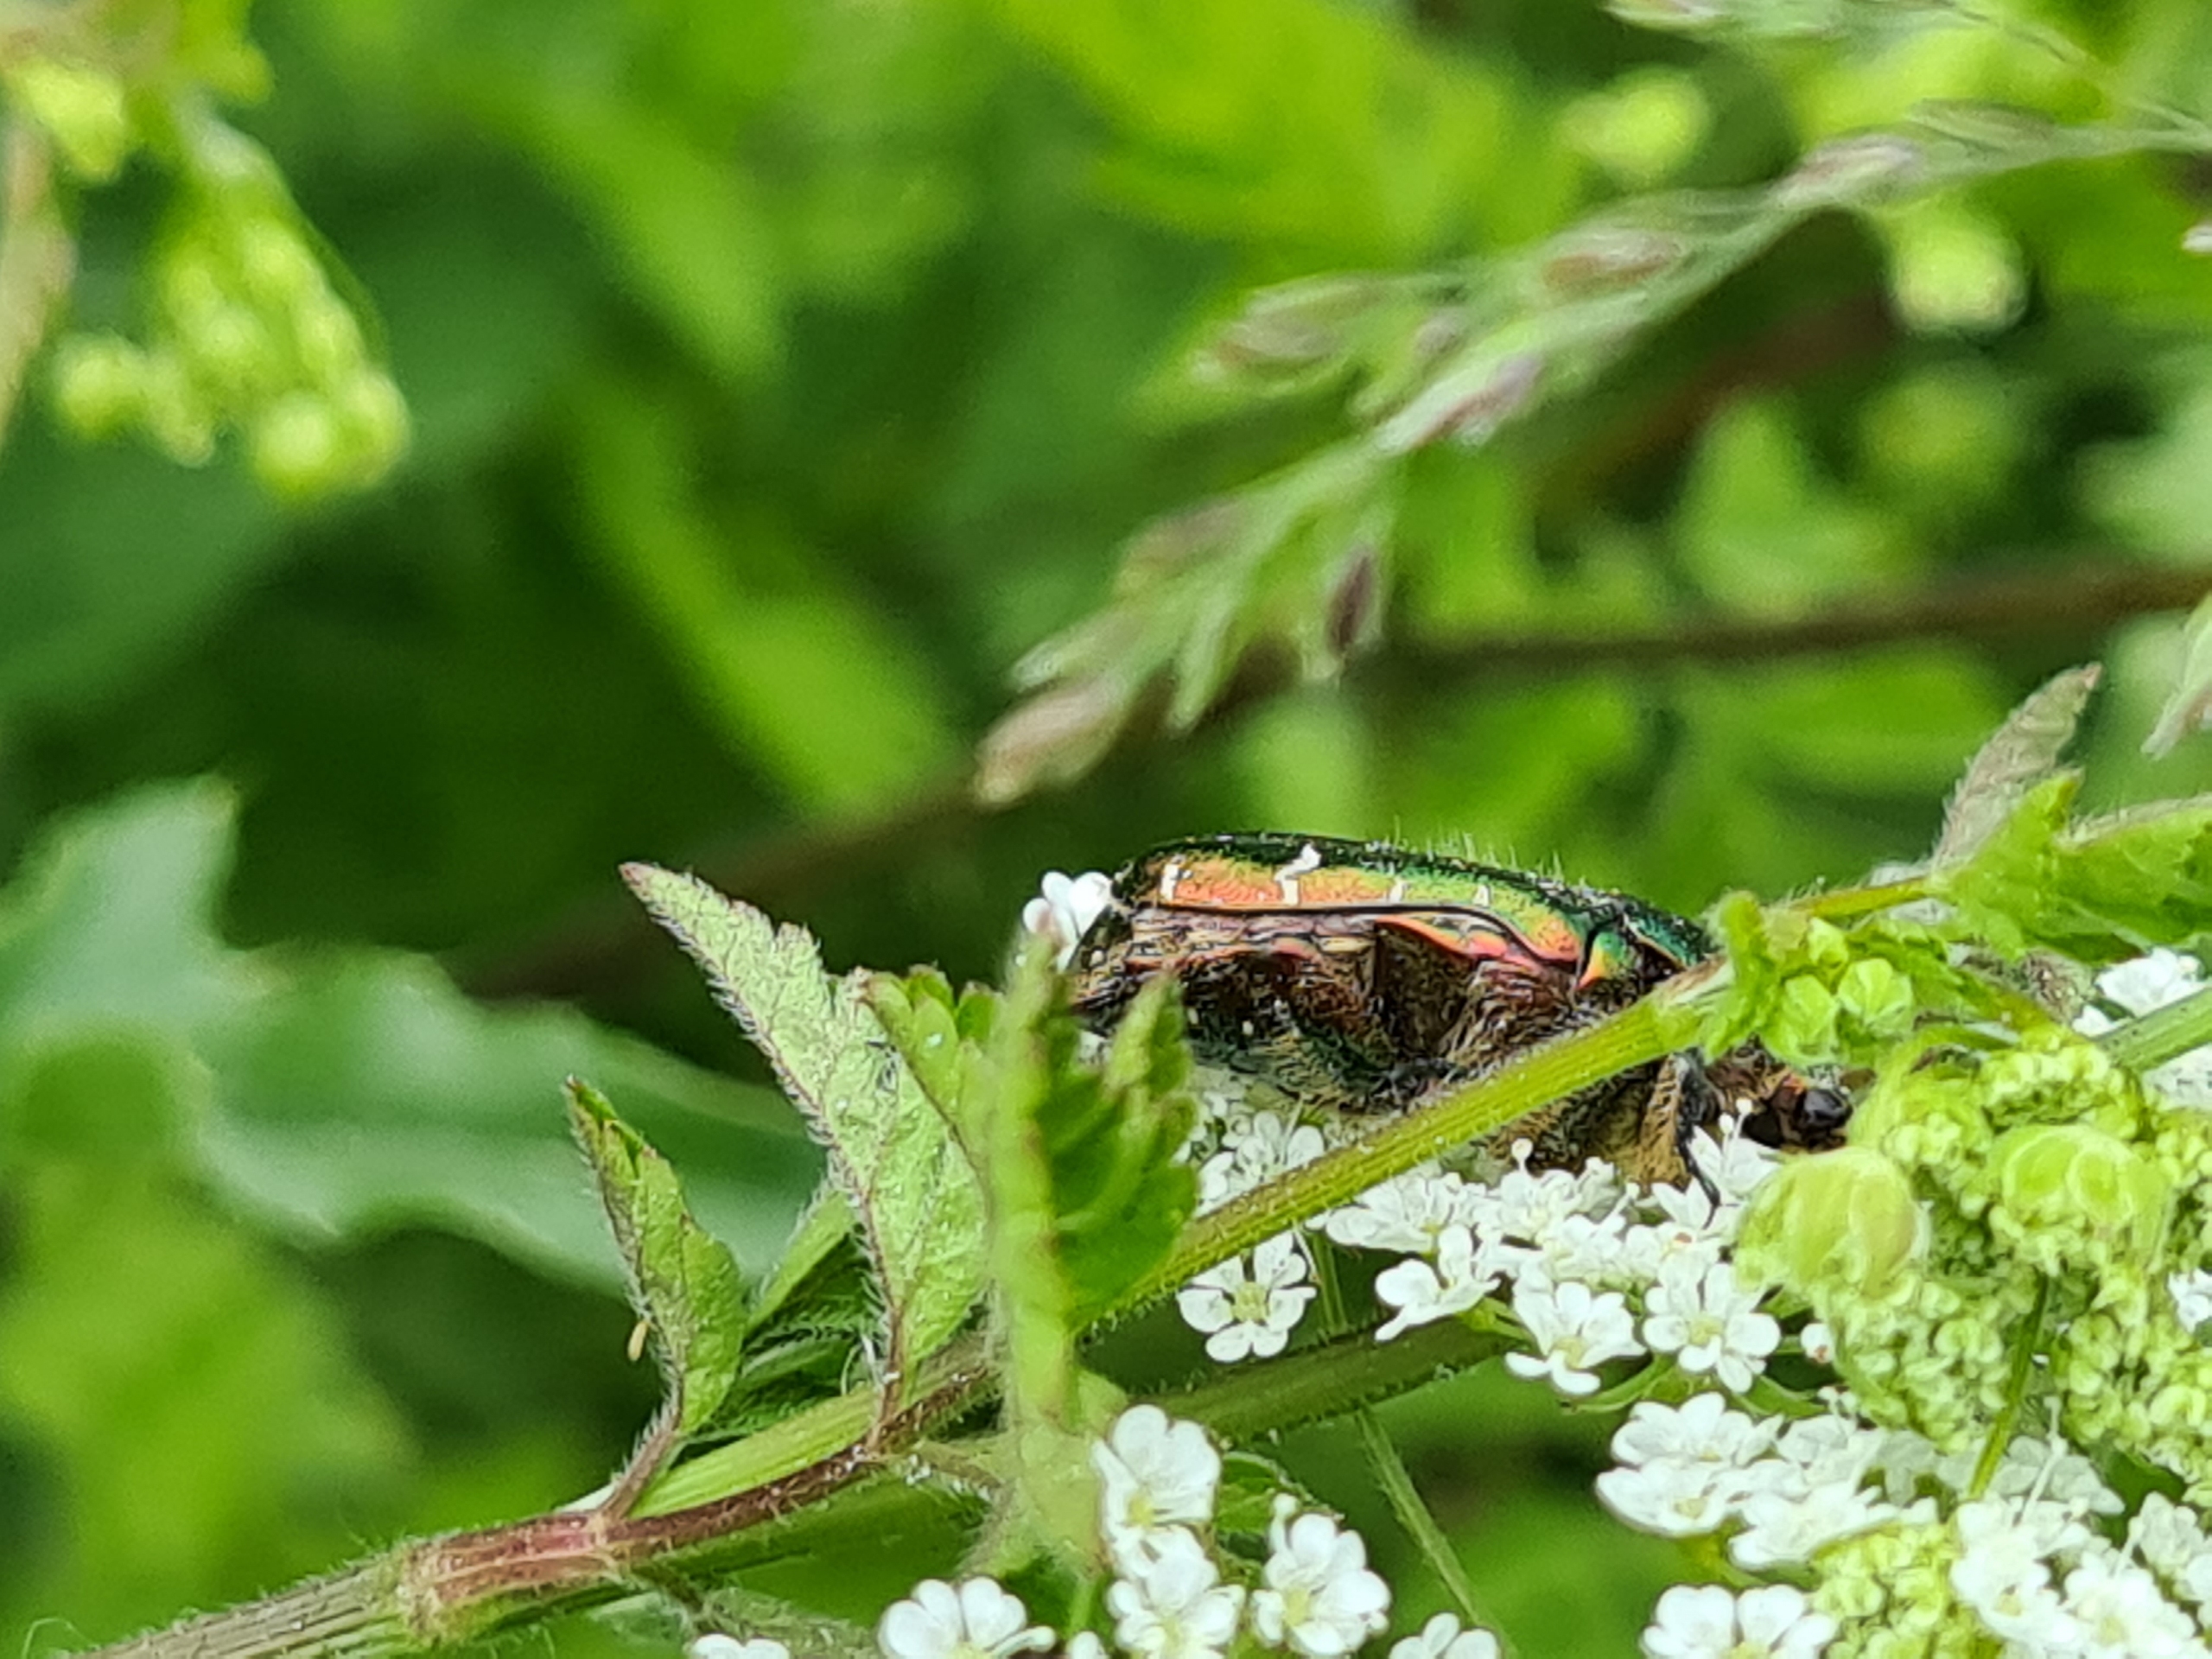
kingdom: Animalia
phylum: Arthropoda
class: Insecta
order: Coleoptera
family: Scarabaeidae
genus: Cetonia
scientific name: Cetonia aurata
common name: Grøn guldbasse
